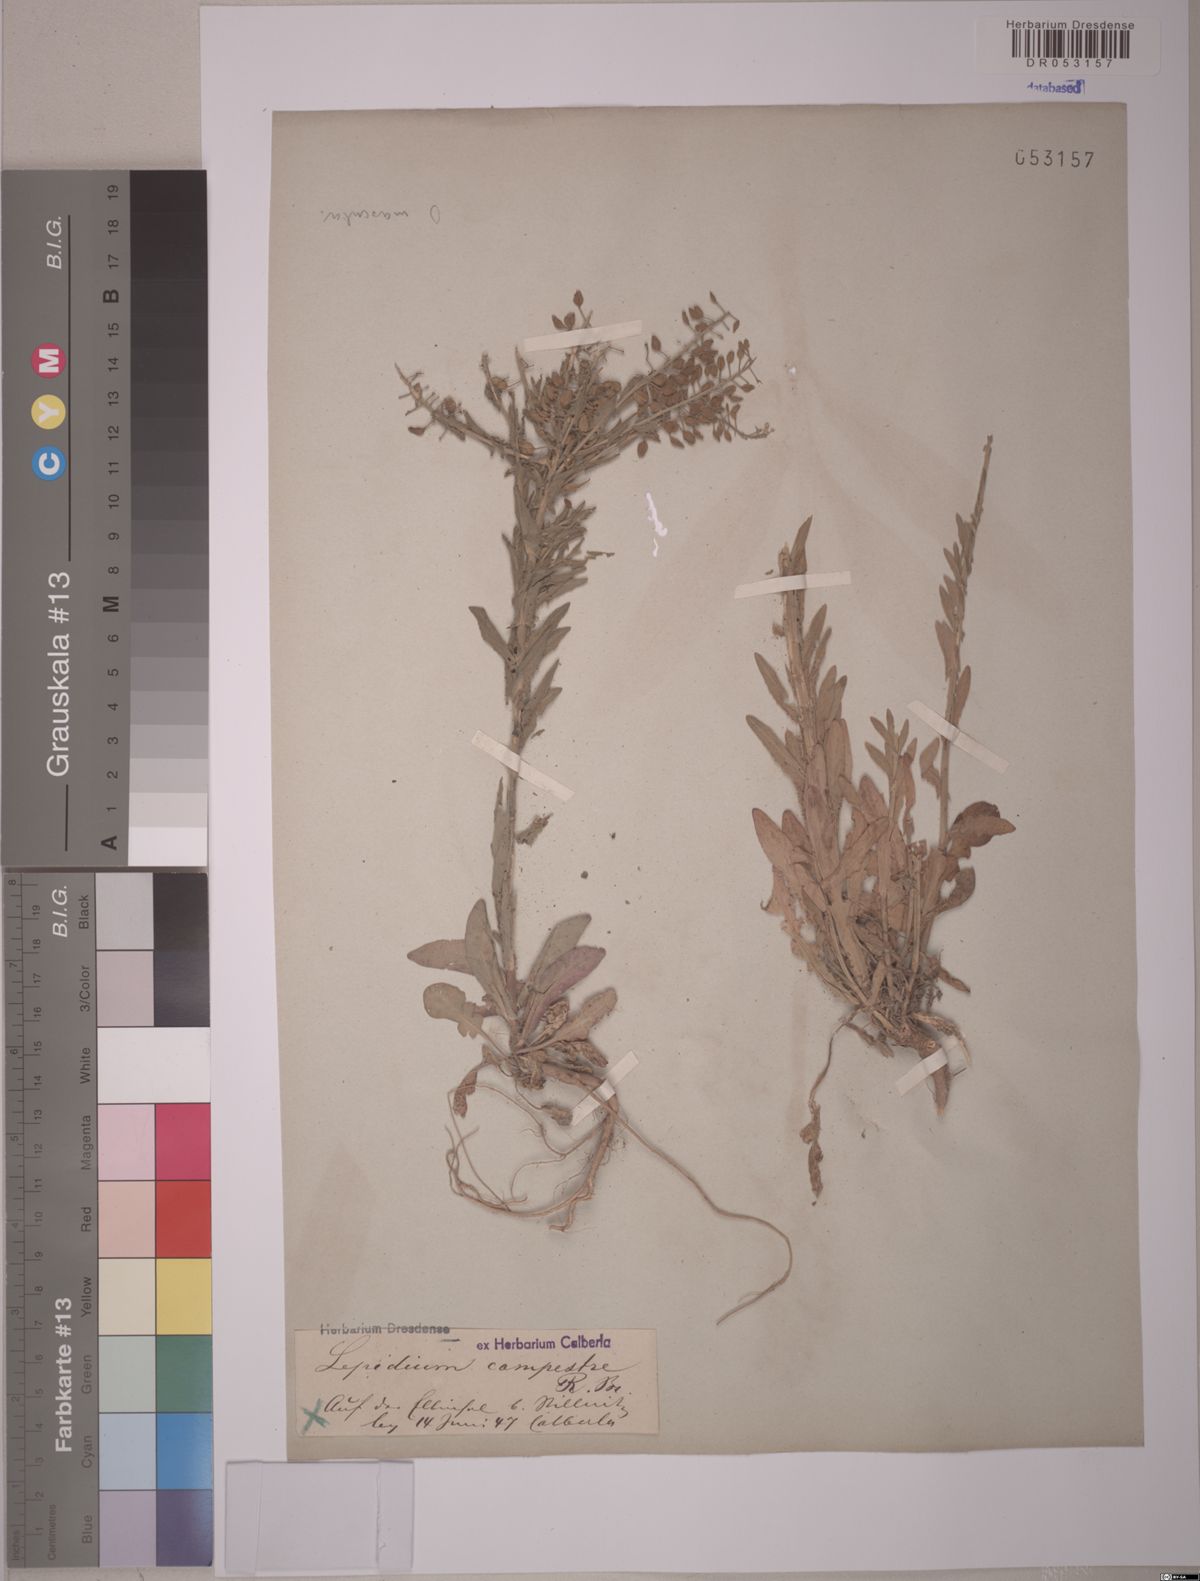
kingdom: Plantae
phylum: Tracheophyta
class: Magnoliopsida
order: Brassicales
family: Brassicaceae
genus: Lepidium
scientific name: Lepidium campestre
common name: Field pepperwort
